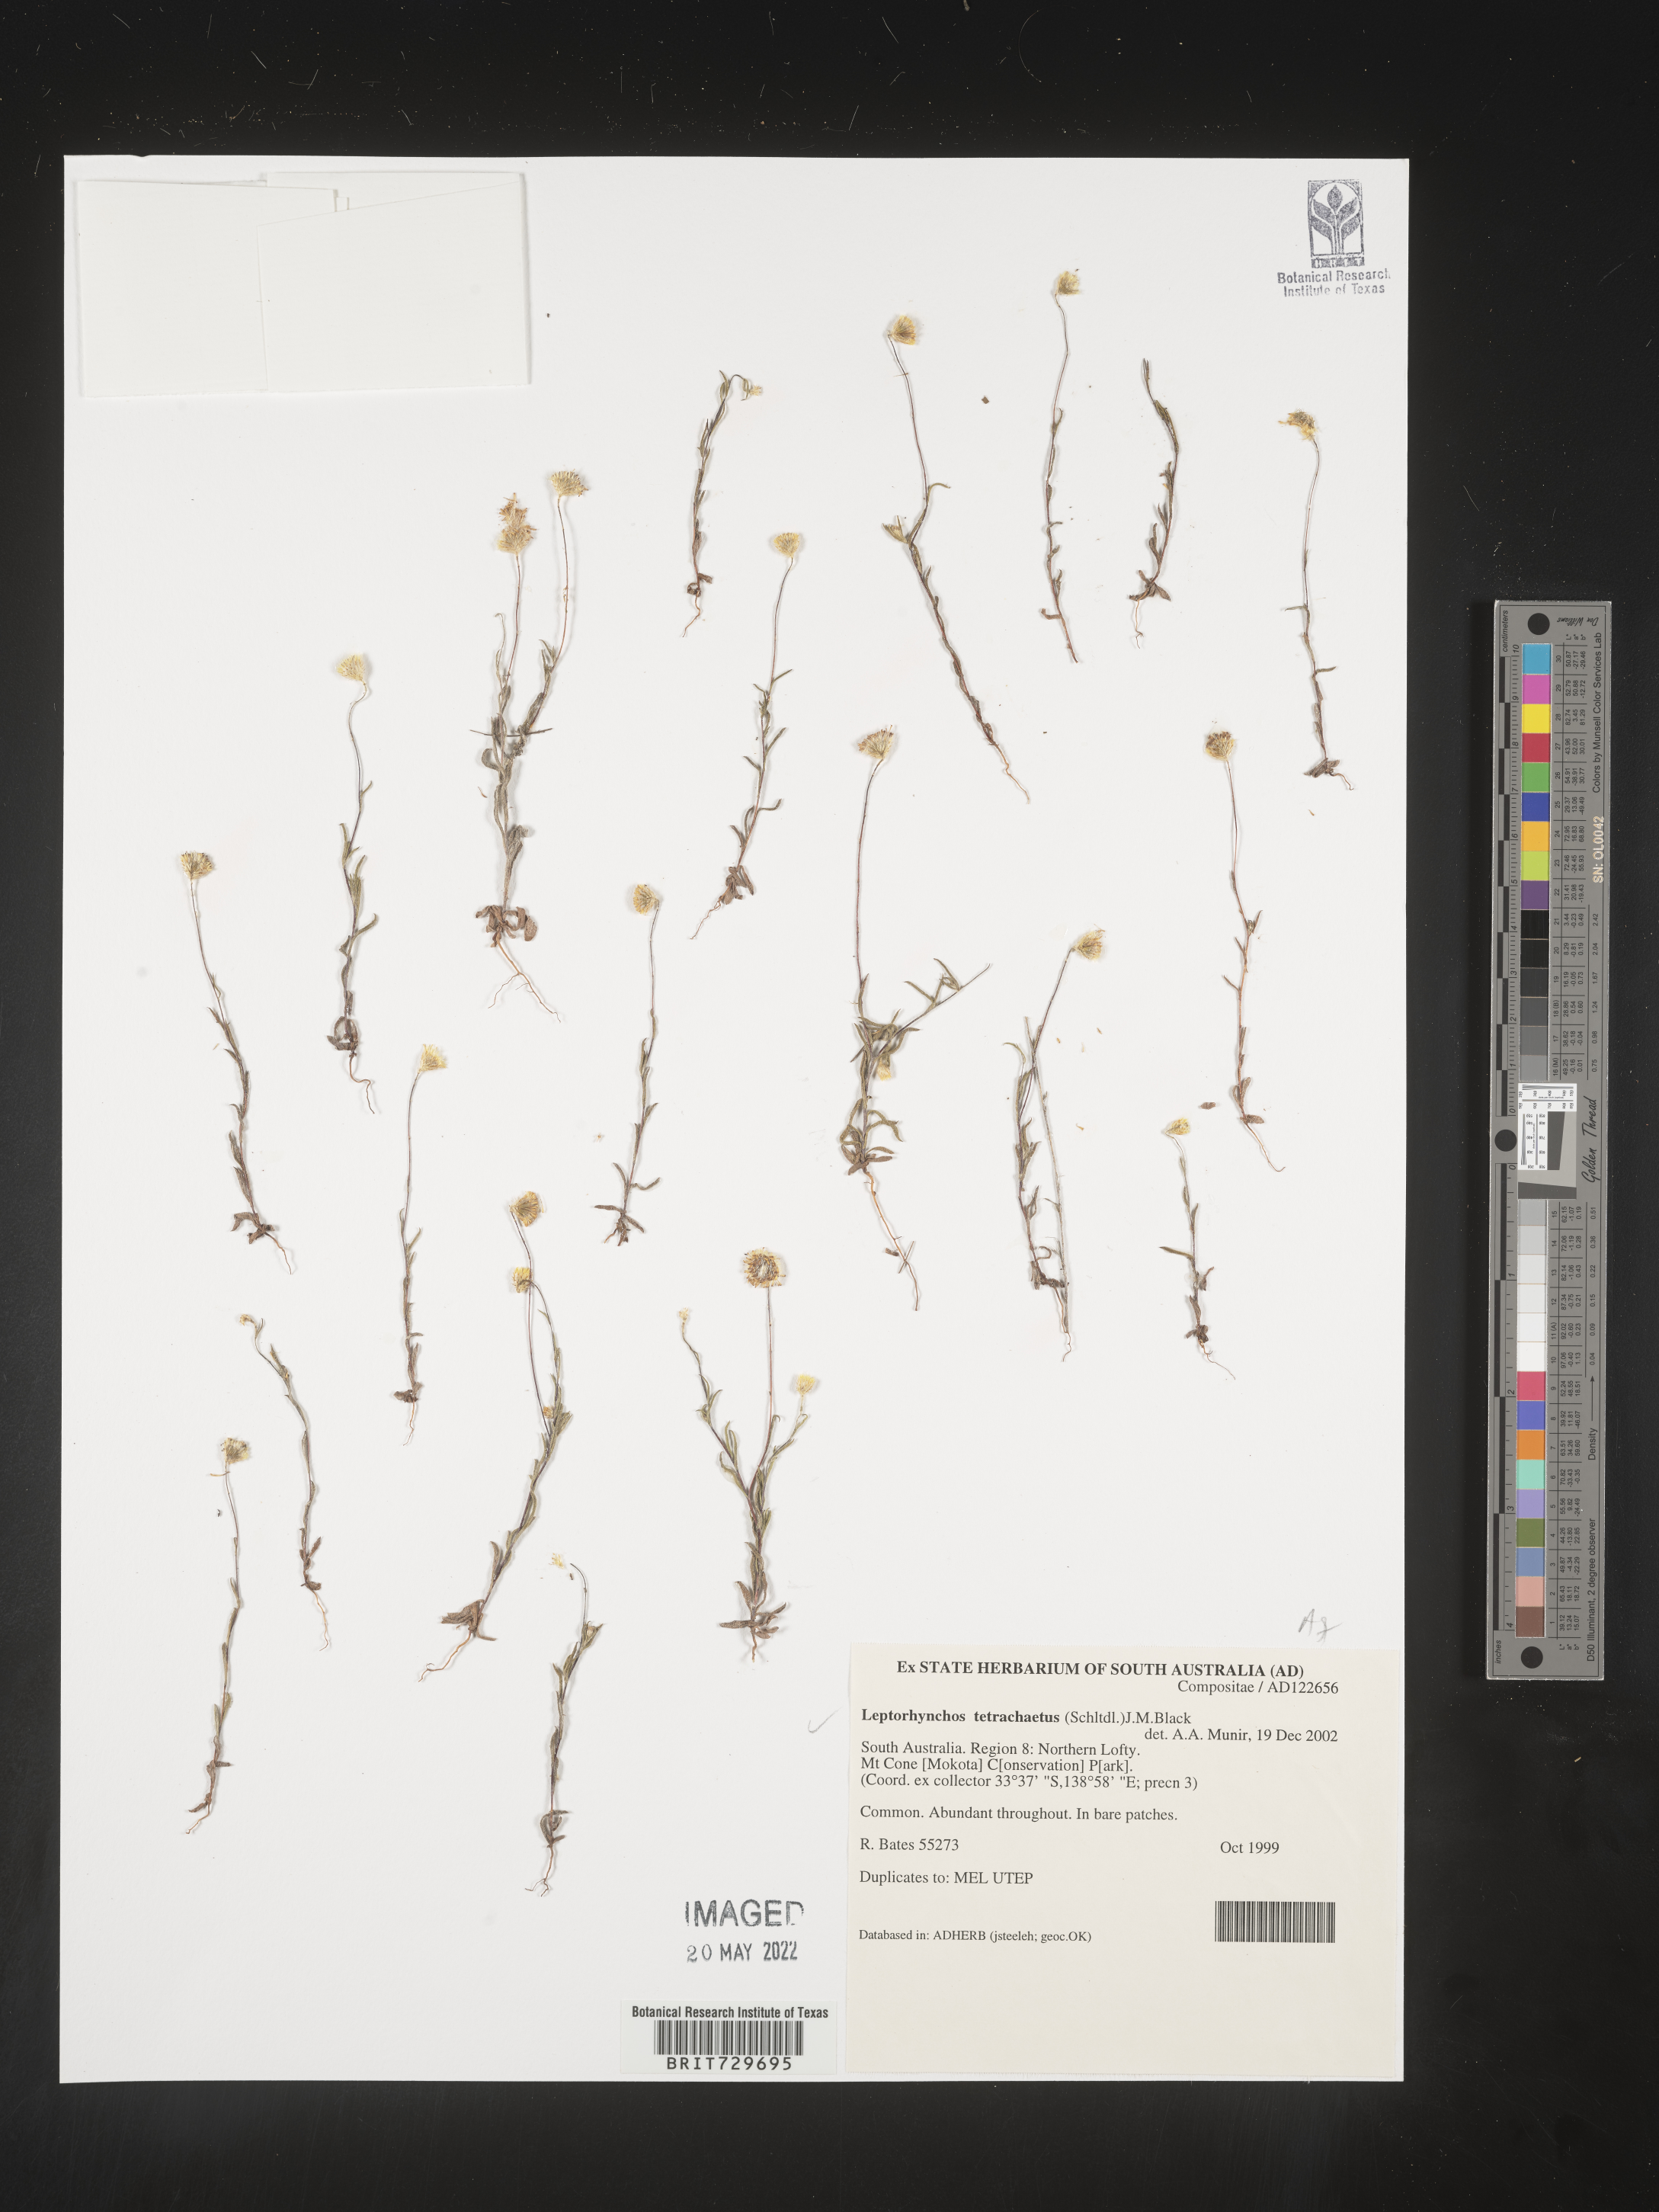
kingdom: Plantae
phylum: Tracheophyta
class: Magnoliopsida
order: Asterales
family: Asteraceae
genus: Leptorhynchos
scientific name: Leptorhynchos
